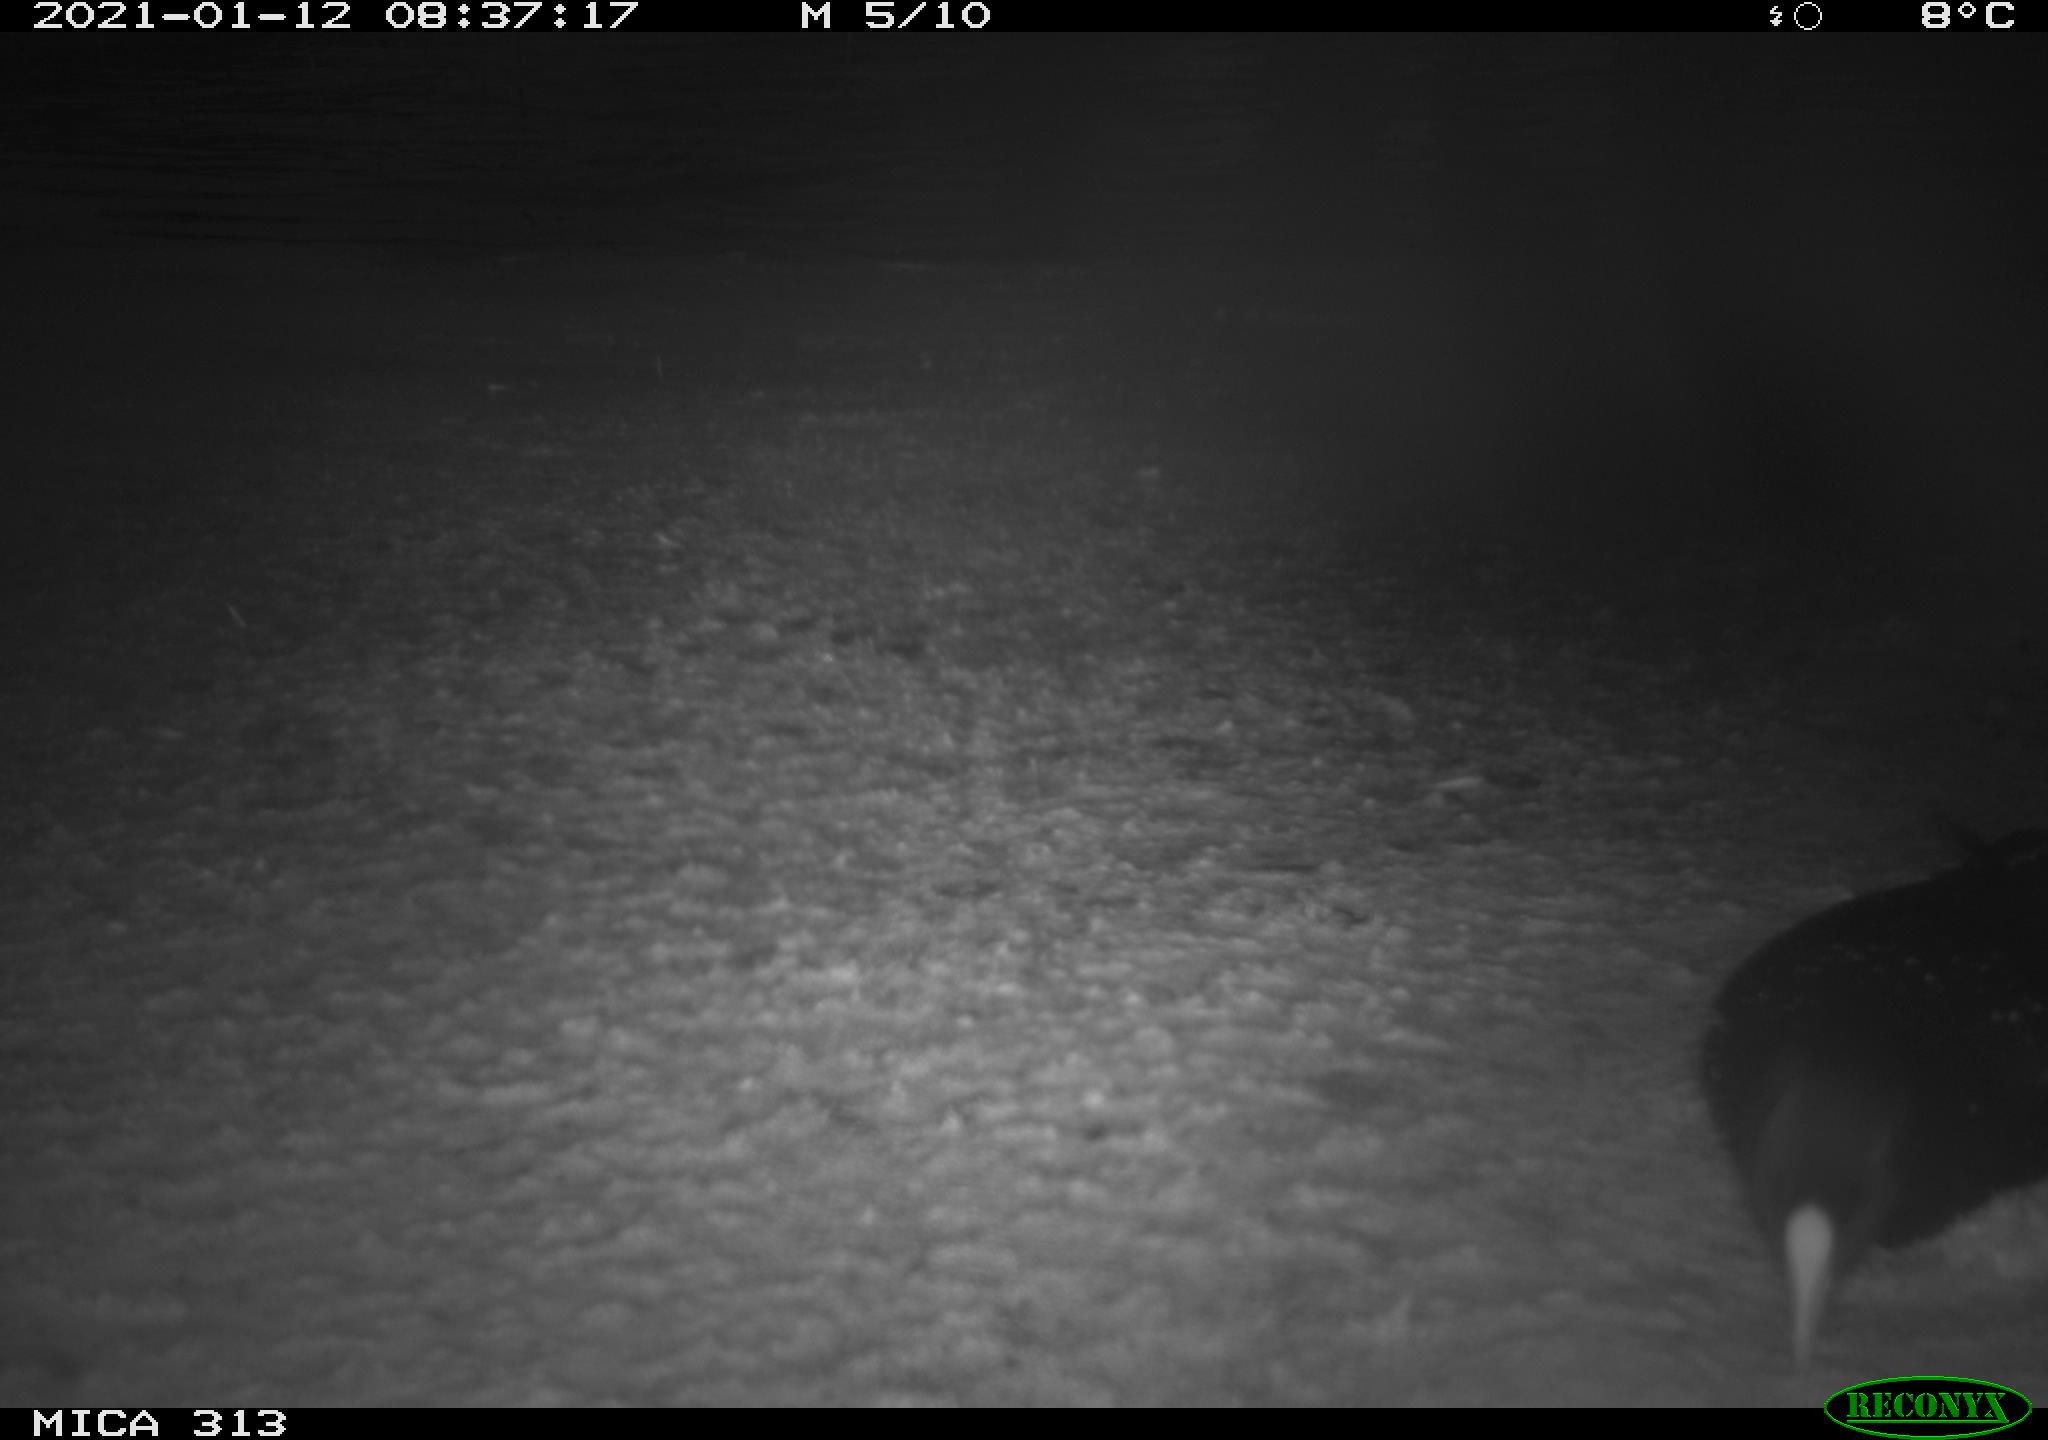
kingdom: Animalia
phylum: Chordata
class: Aves
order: Gruiformes
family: Rallidae
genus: Gallinula
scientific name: Gallinula chloropus
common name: Common moorhen
